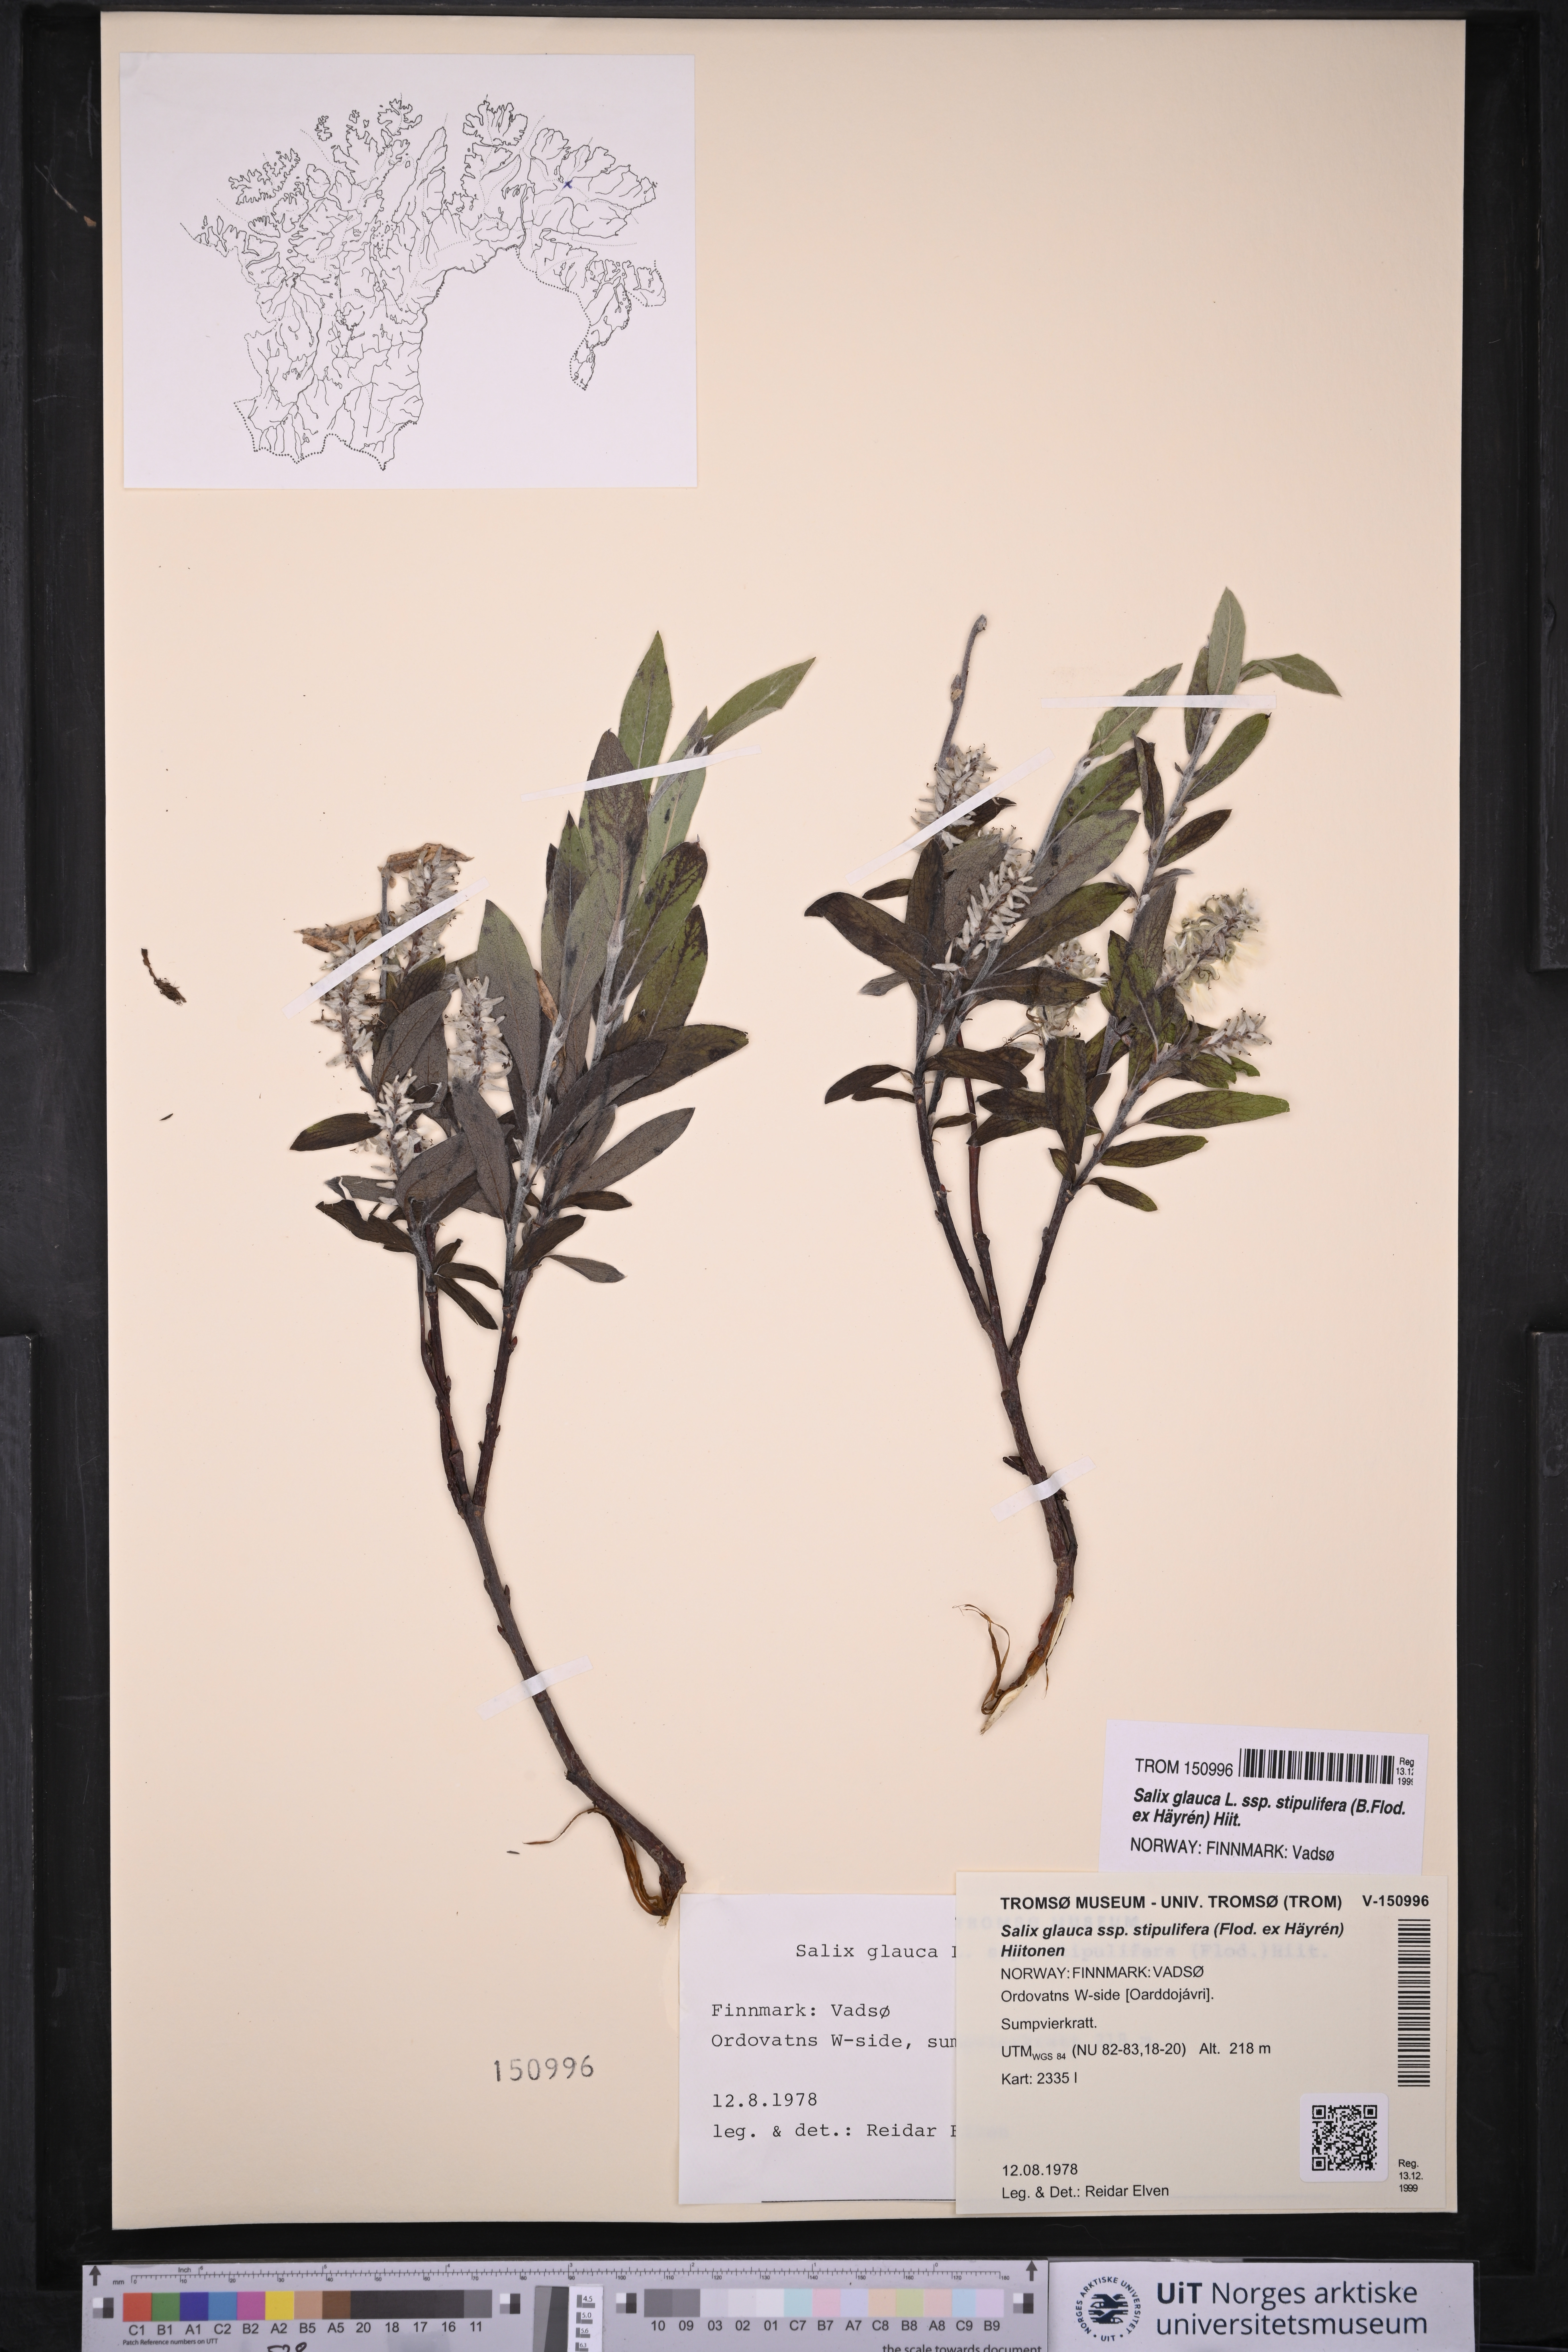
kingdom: Plantae
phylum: Tracheophyta
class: Magnoliopsida
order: Malpighiales
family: Salicaceae
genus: Salix
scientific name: Salix glauca
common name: Glaucous willow
